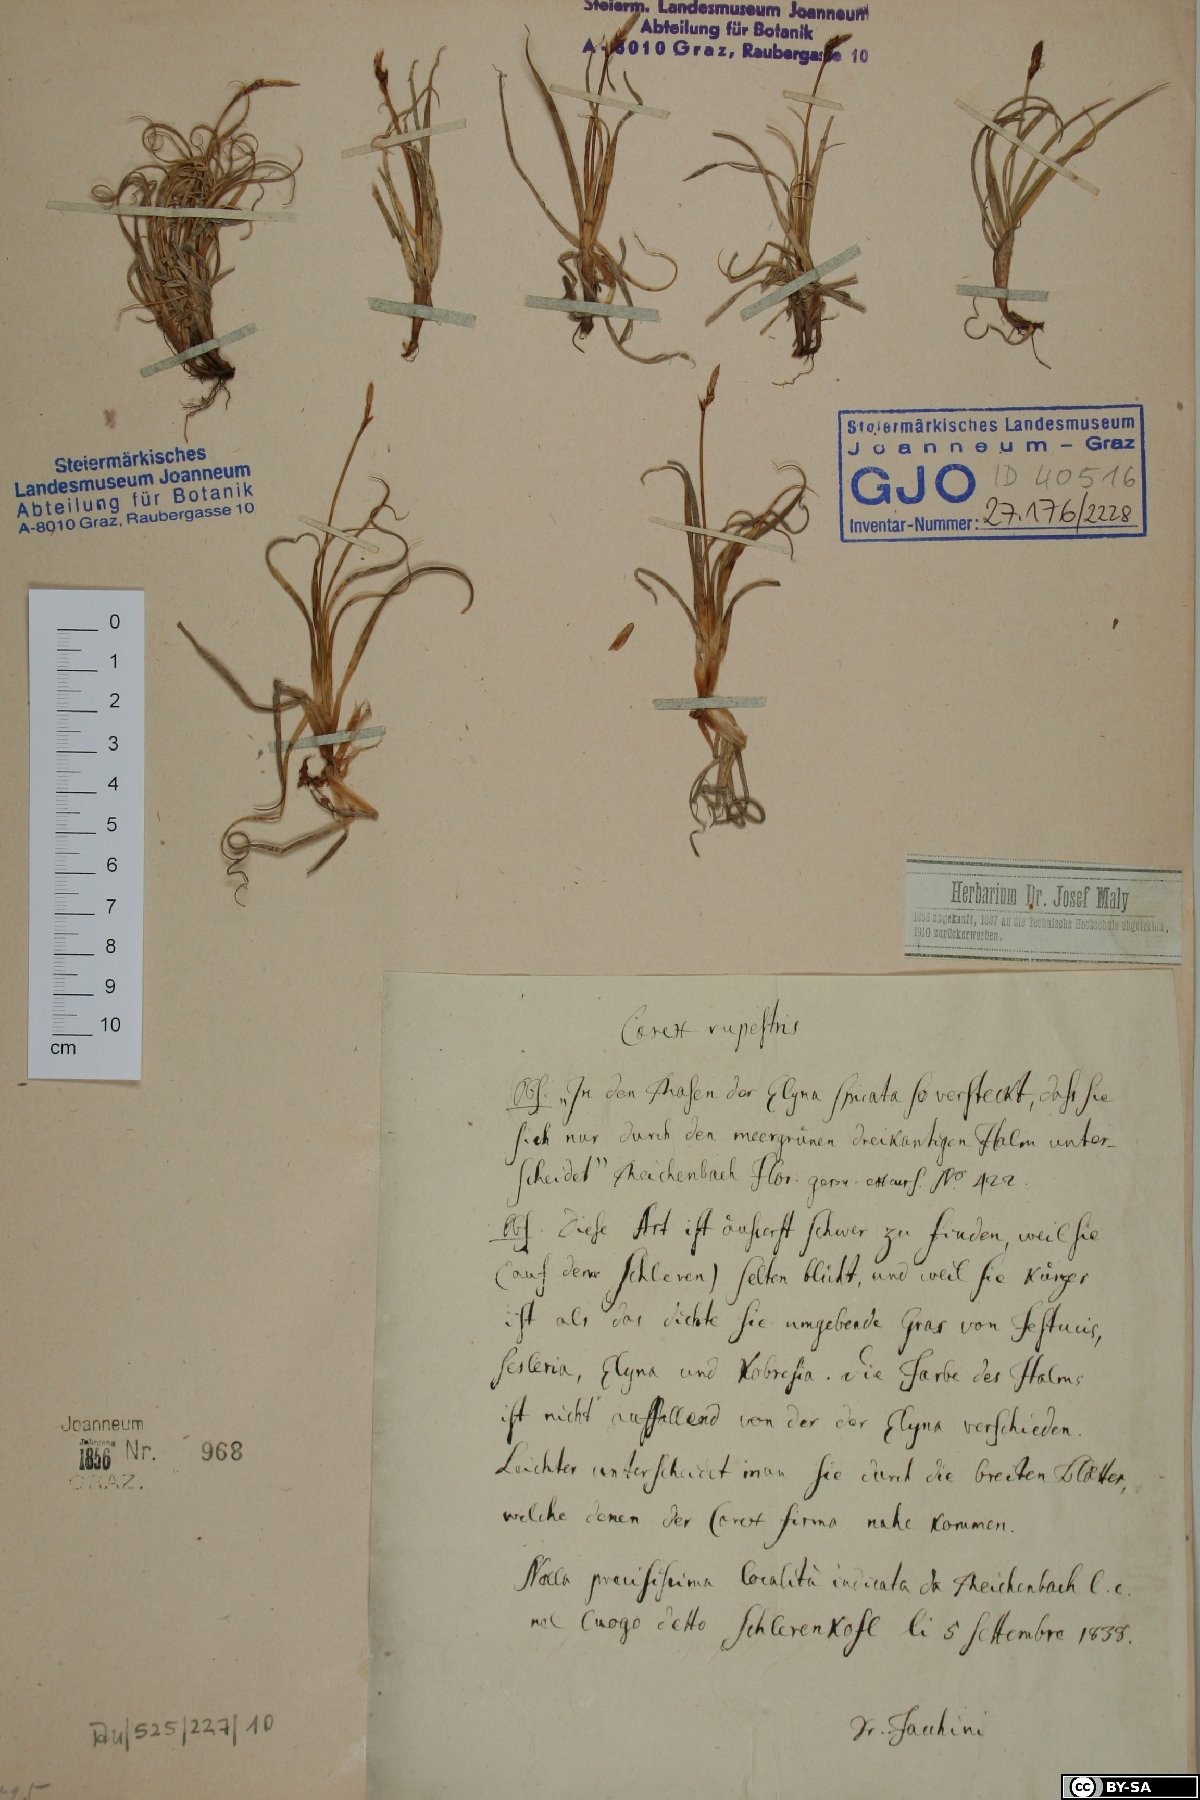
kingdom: Plantae
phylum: Tracheophyta
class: Liliopsida
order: Poales
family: Cyperaceae
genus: Carex
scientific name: Carex rupestris
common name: Rock sedge
